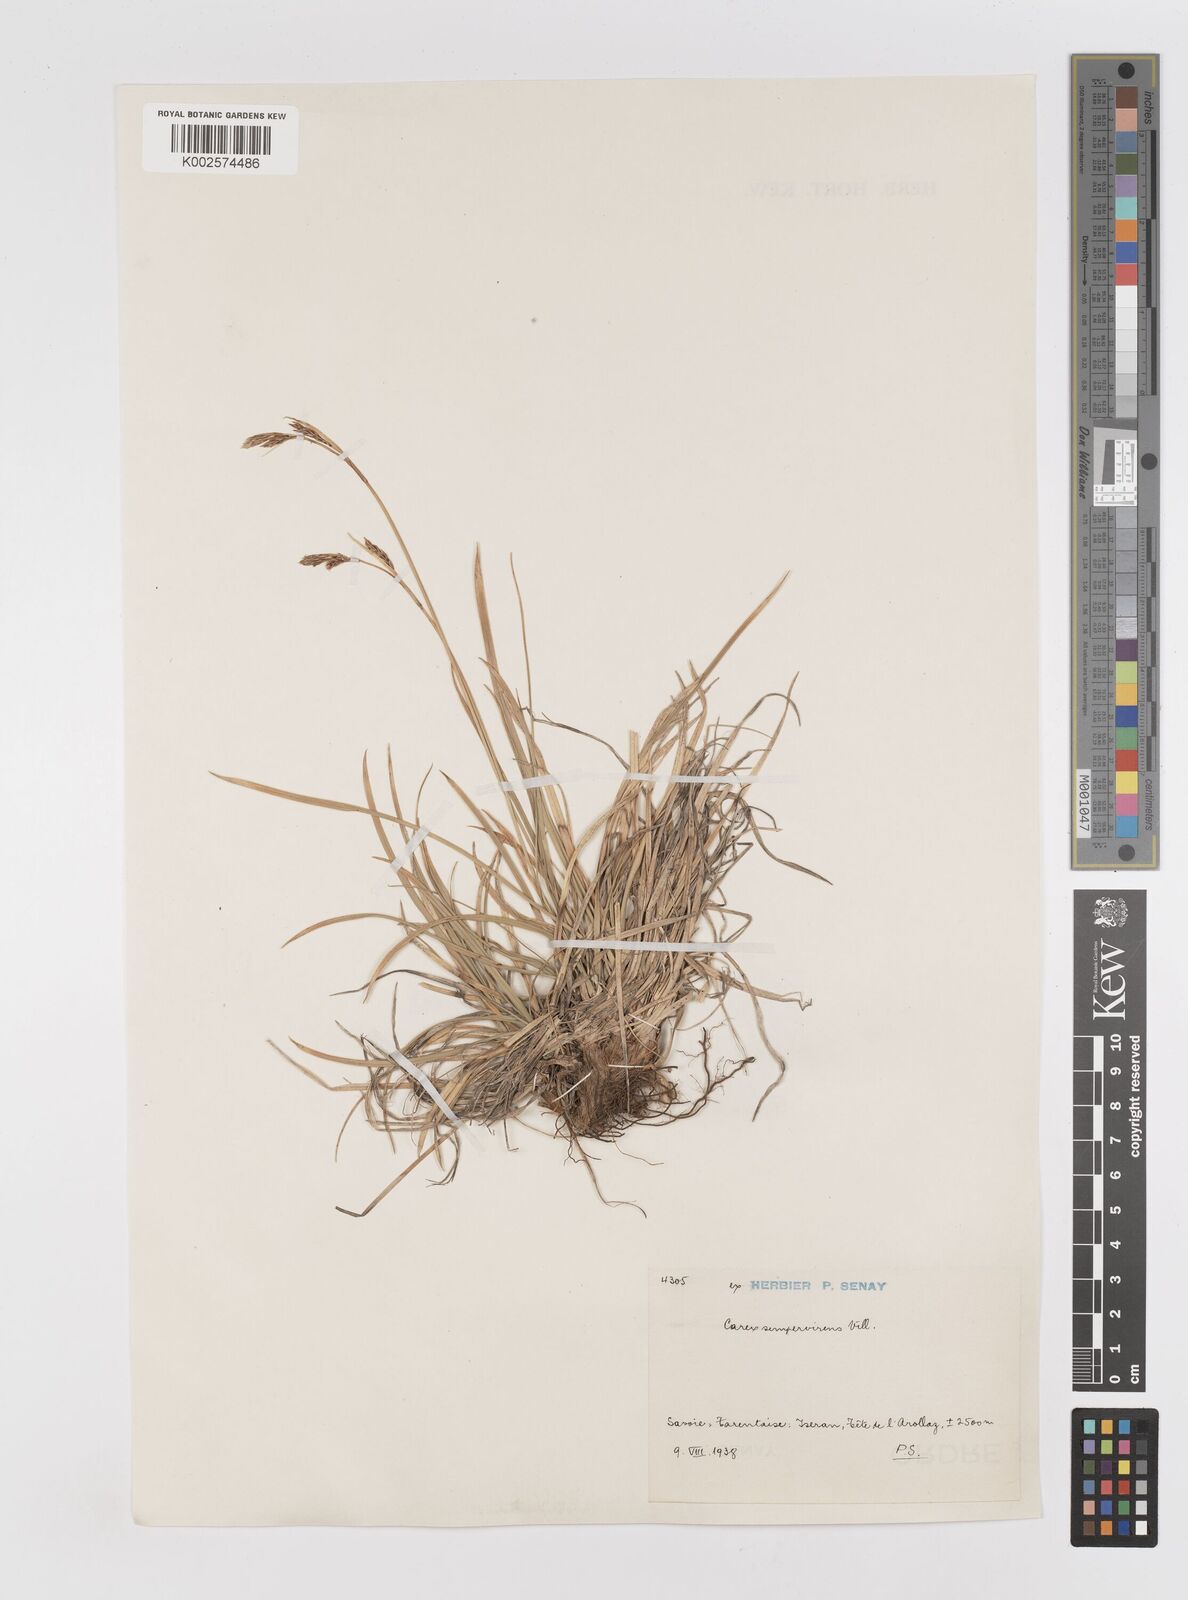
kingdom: Plantae
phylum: Tracheophyta
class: Liliopsida
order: Poales
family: Cyperaceae
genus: Carex
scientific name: Carex sempervirens
